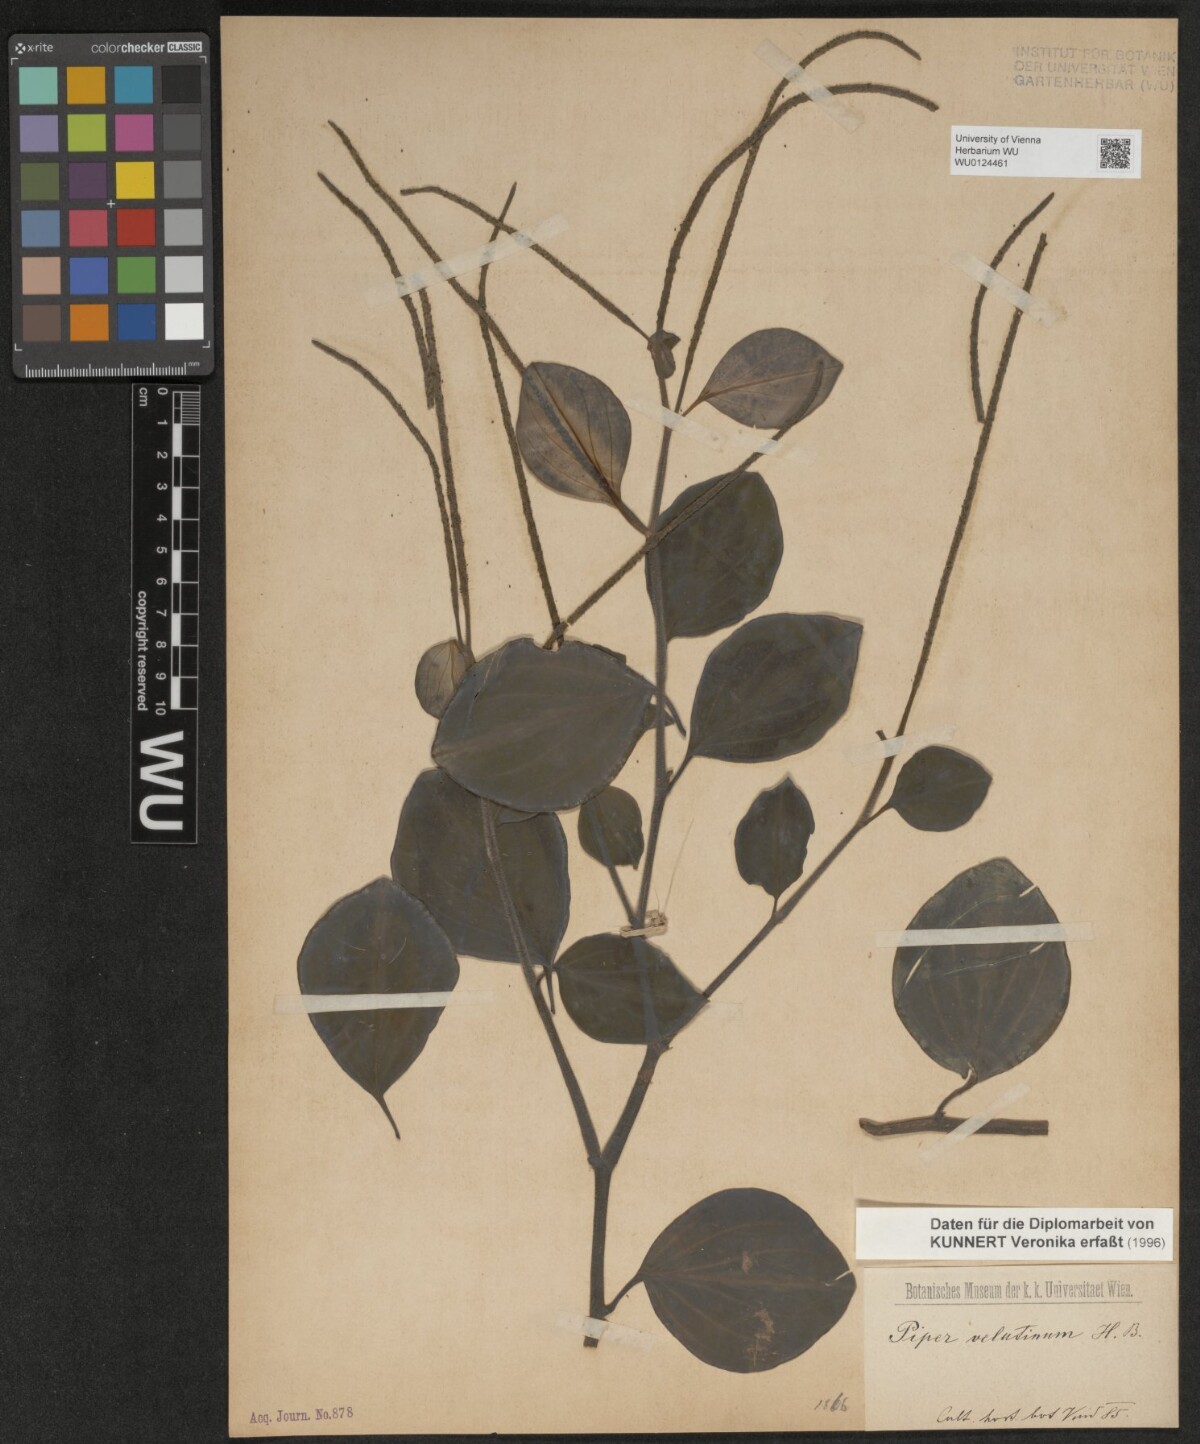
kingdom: Plantae
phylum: Tracheophyta
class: Magnoliopsida
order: Piperales
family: Piperaceae
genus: Peperomia
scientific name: Peperomia velutina
